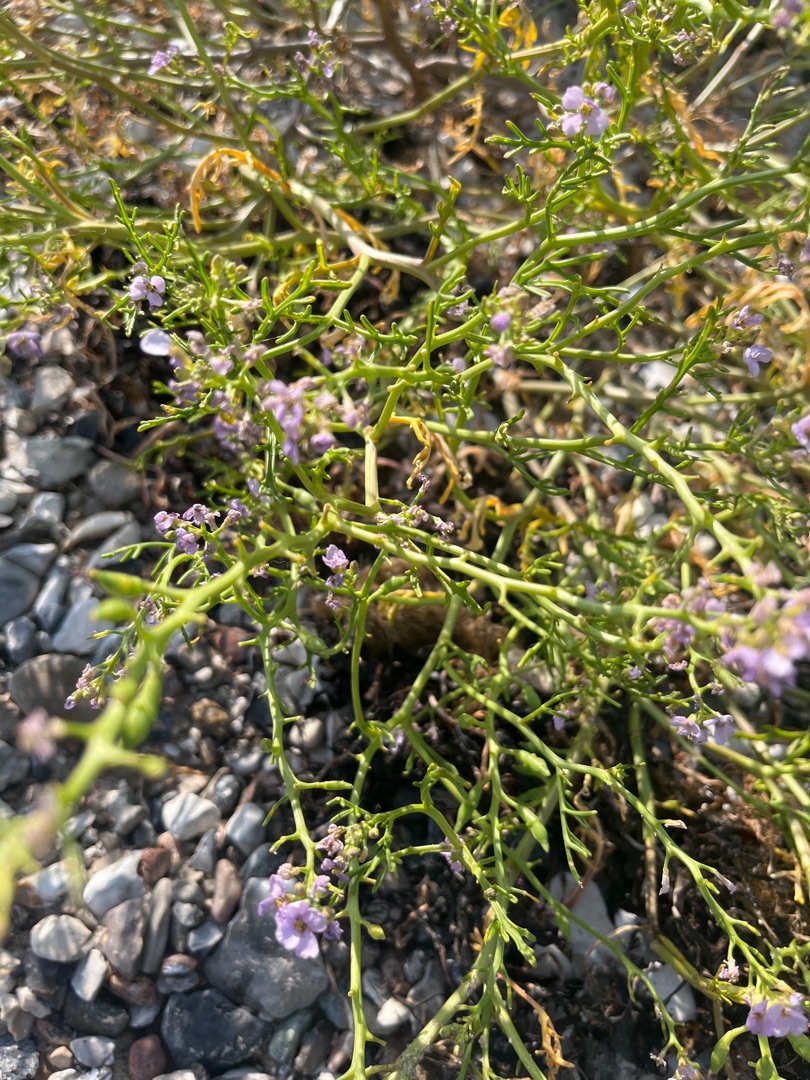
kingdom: Plantae
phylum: Tracheophyta
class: Magnoliopsida
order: Brassicales
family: Brassicaceae
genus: Cakile
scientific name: Cakile maritima
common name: Strandsennep
